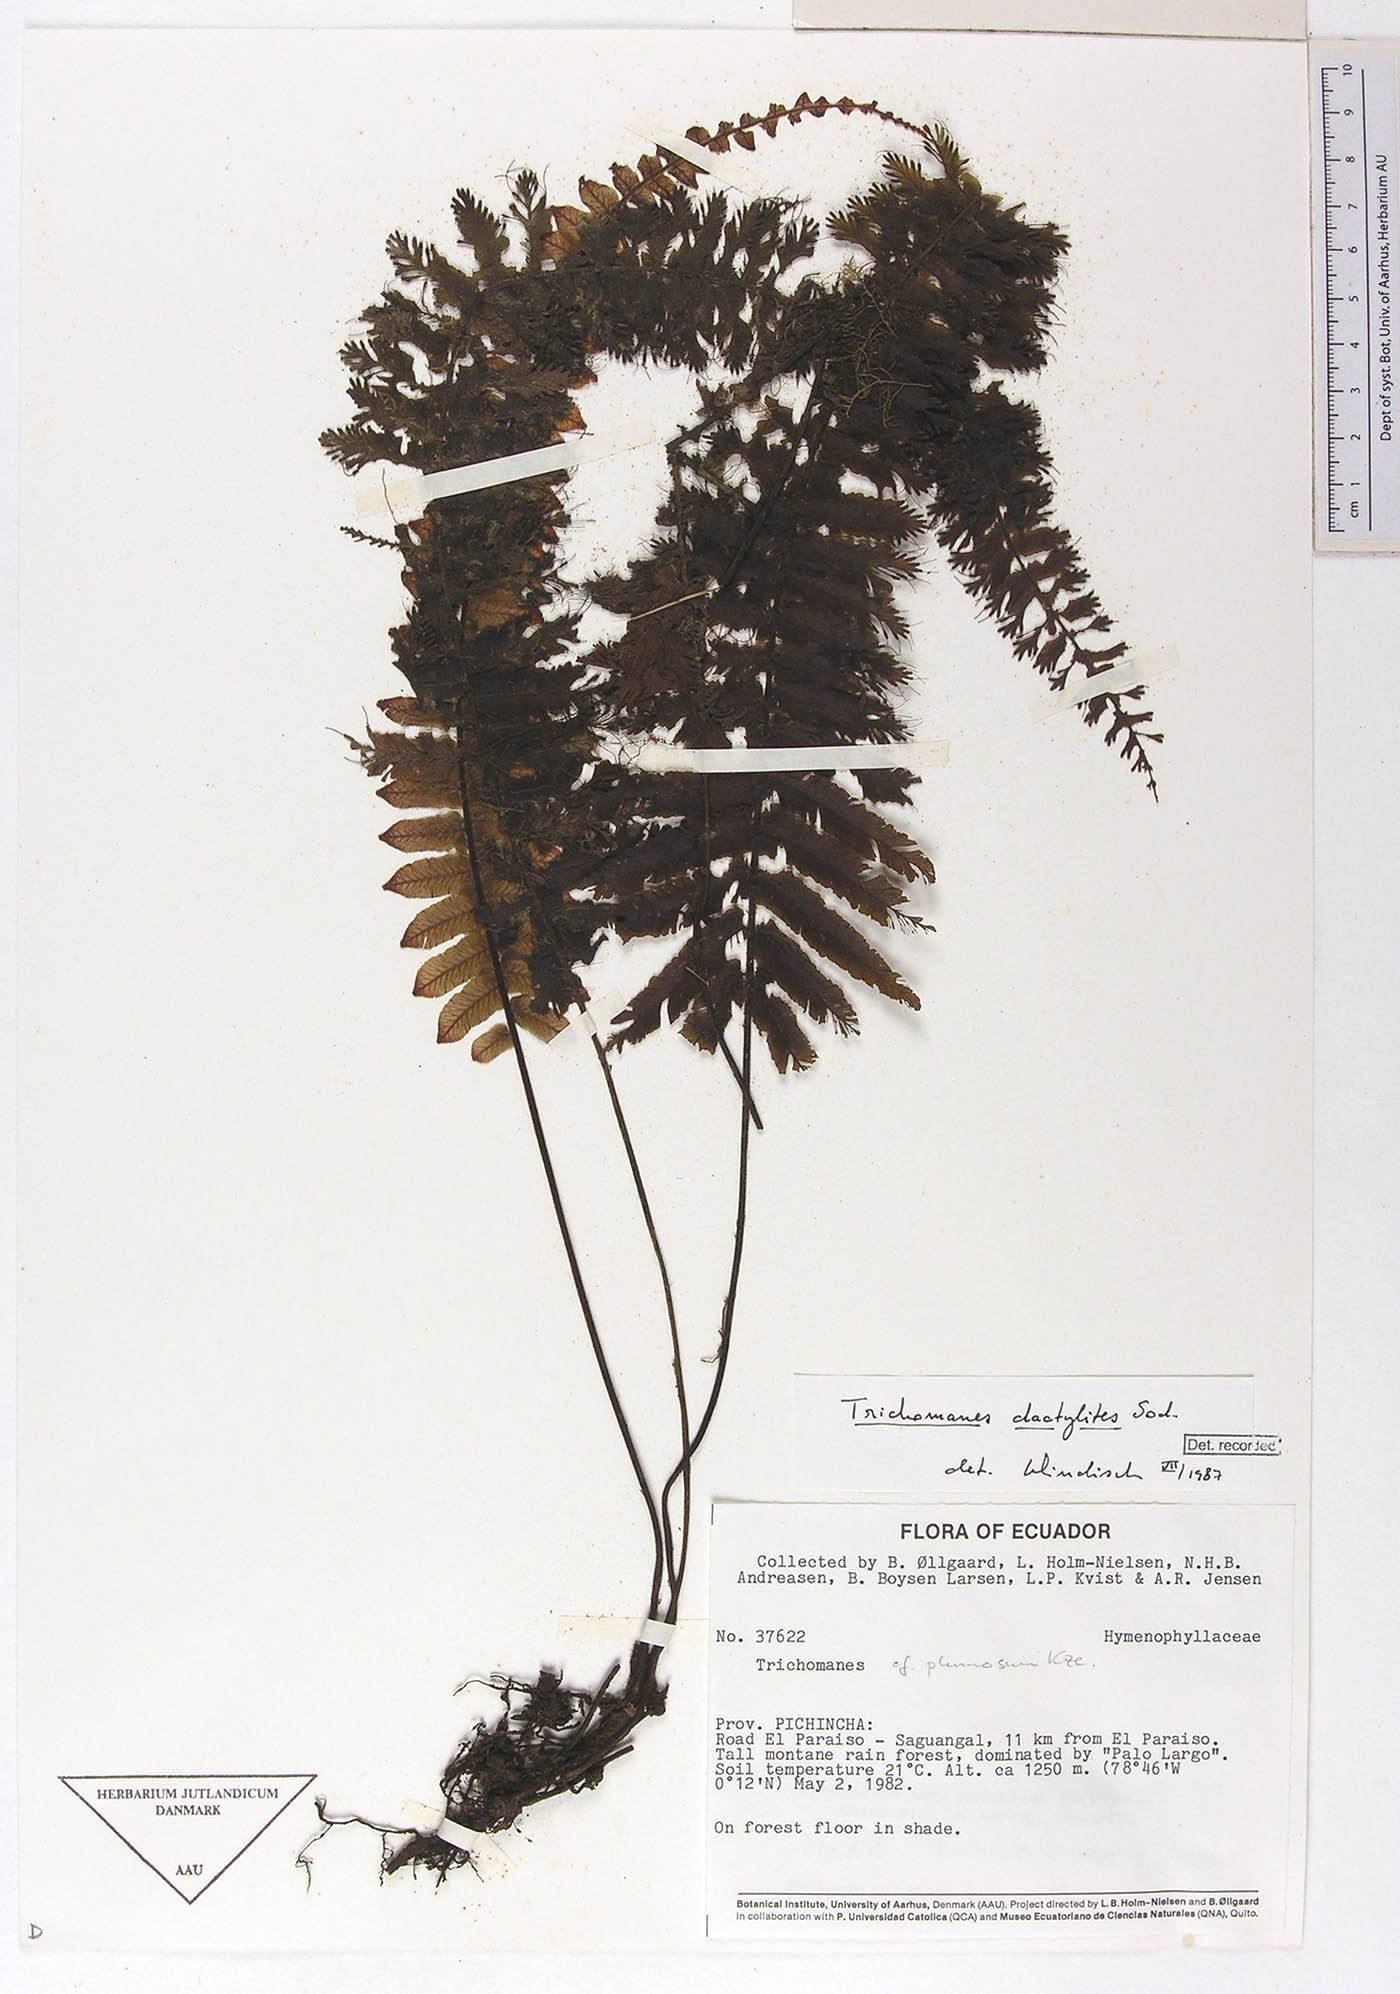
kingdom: Plantae
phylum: Tracheophyta
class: Polypodiopsida
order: Hymenophyllales
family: Hymenophyllaceae
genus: Trichomanes
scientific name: Trichomanes dactylites
